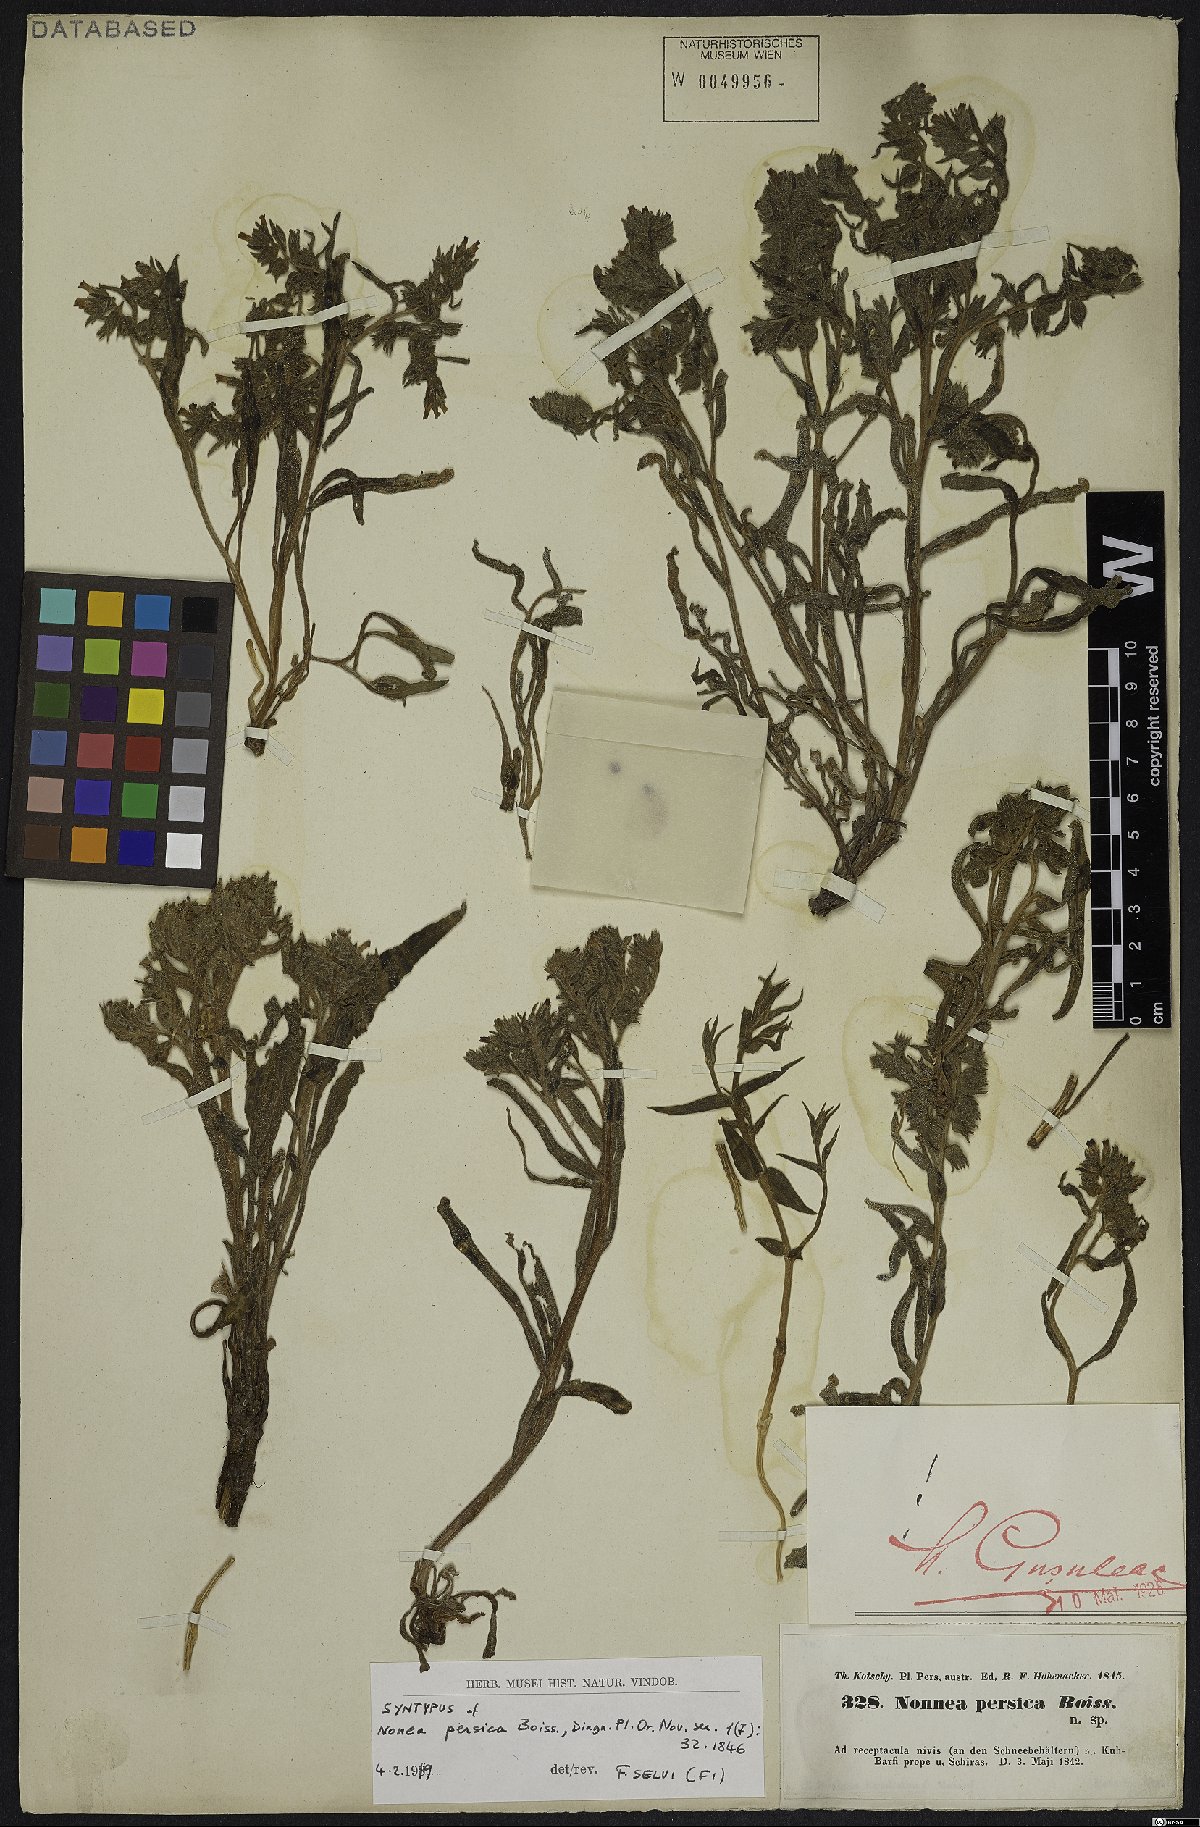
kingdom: Plantae
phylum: Tracheophyta
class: Magnoliopsida
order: Boraginales
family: Boraginaceae
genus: Nonea
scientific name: Nonea persica
